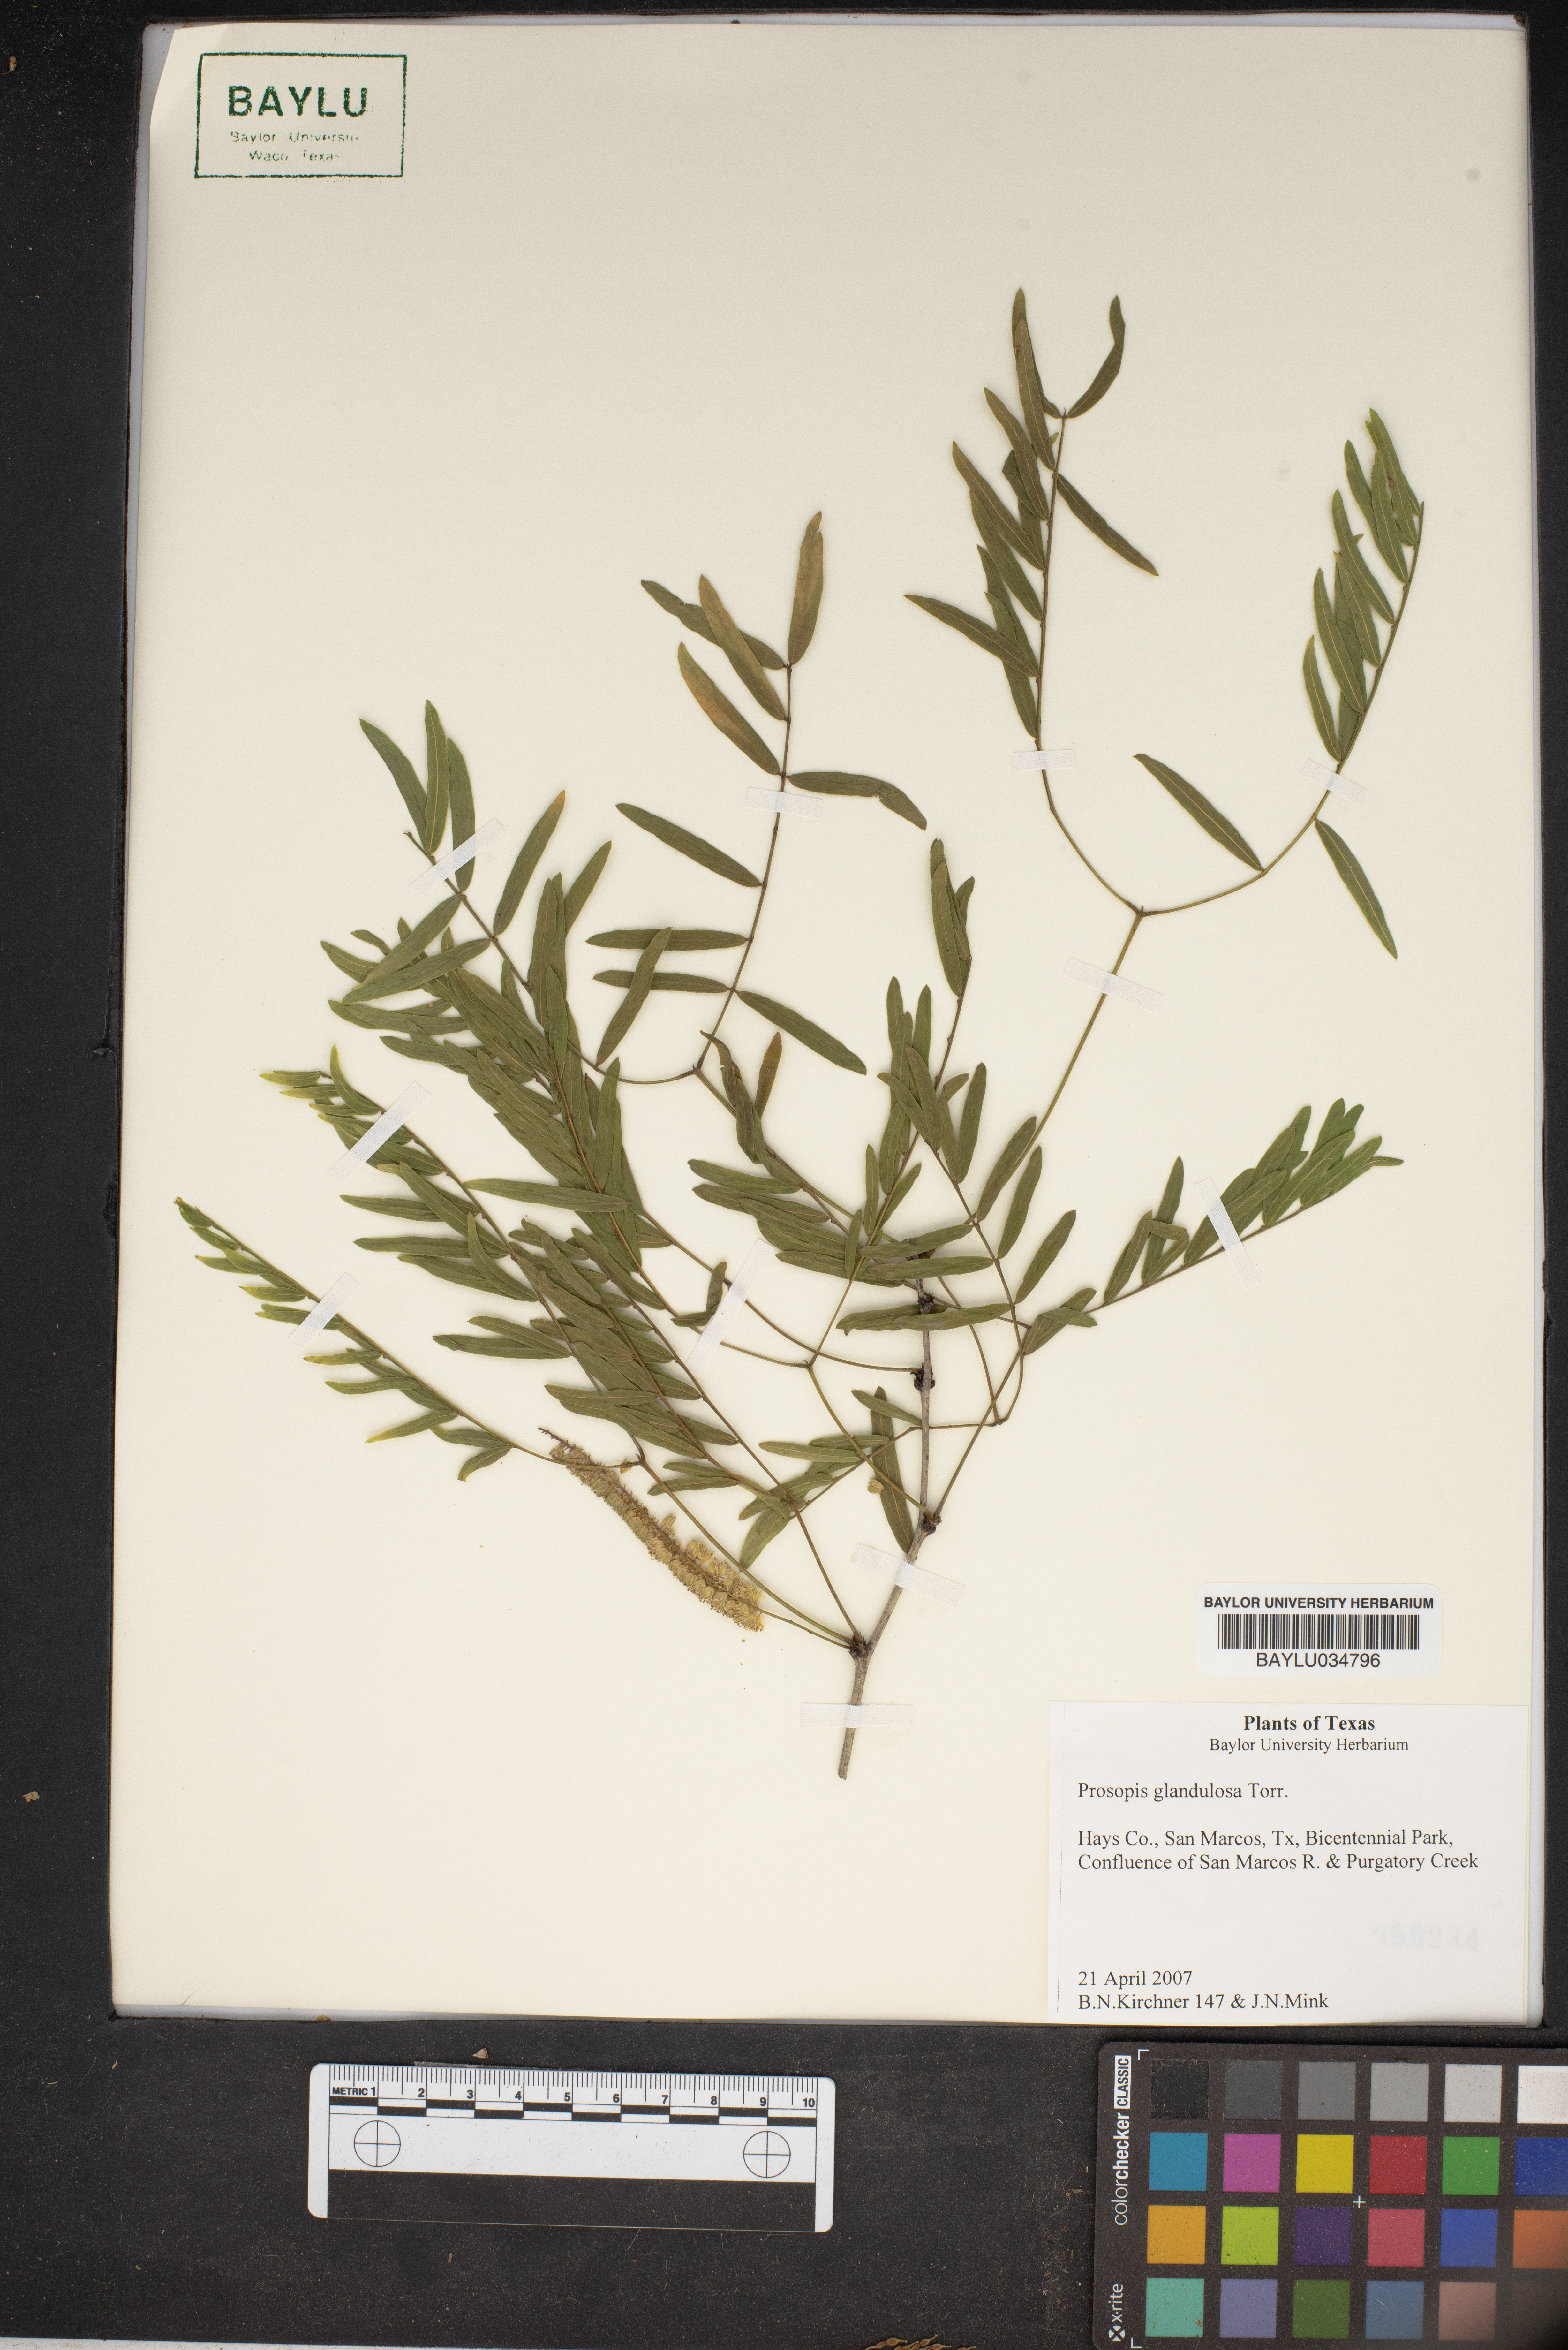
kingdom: Plantae
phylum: Tracheophyta
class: Magnoliopsida
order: Fabales
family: Fabaceae
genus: Prosopis
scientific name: Prosopis glandulosa
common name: Honey mesquite
